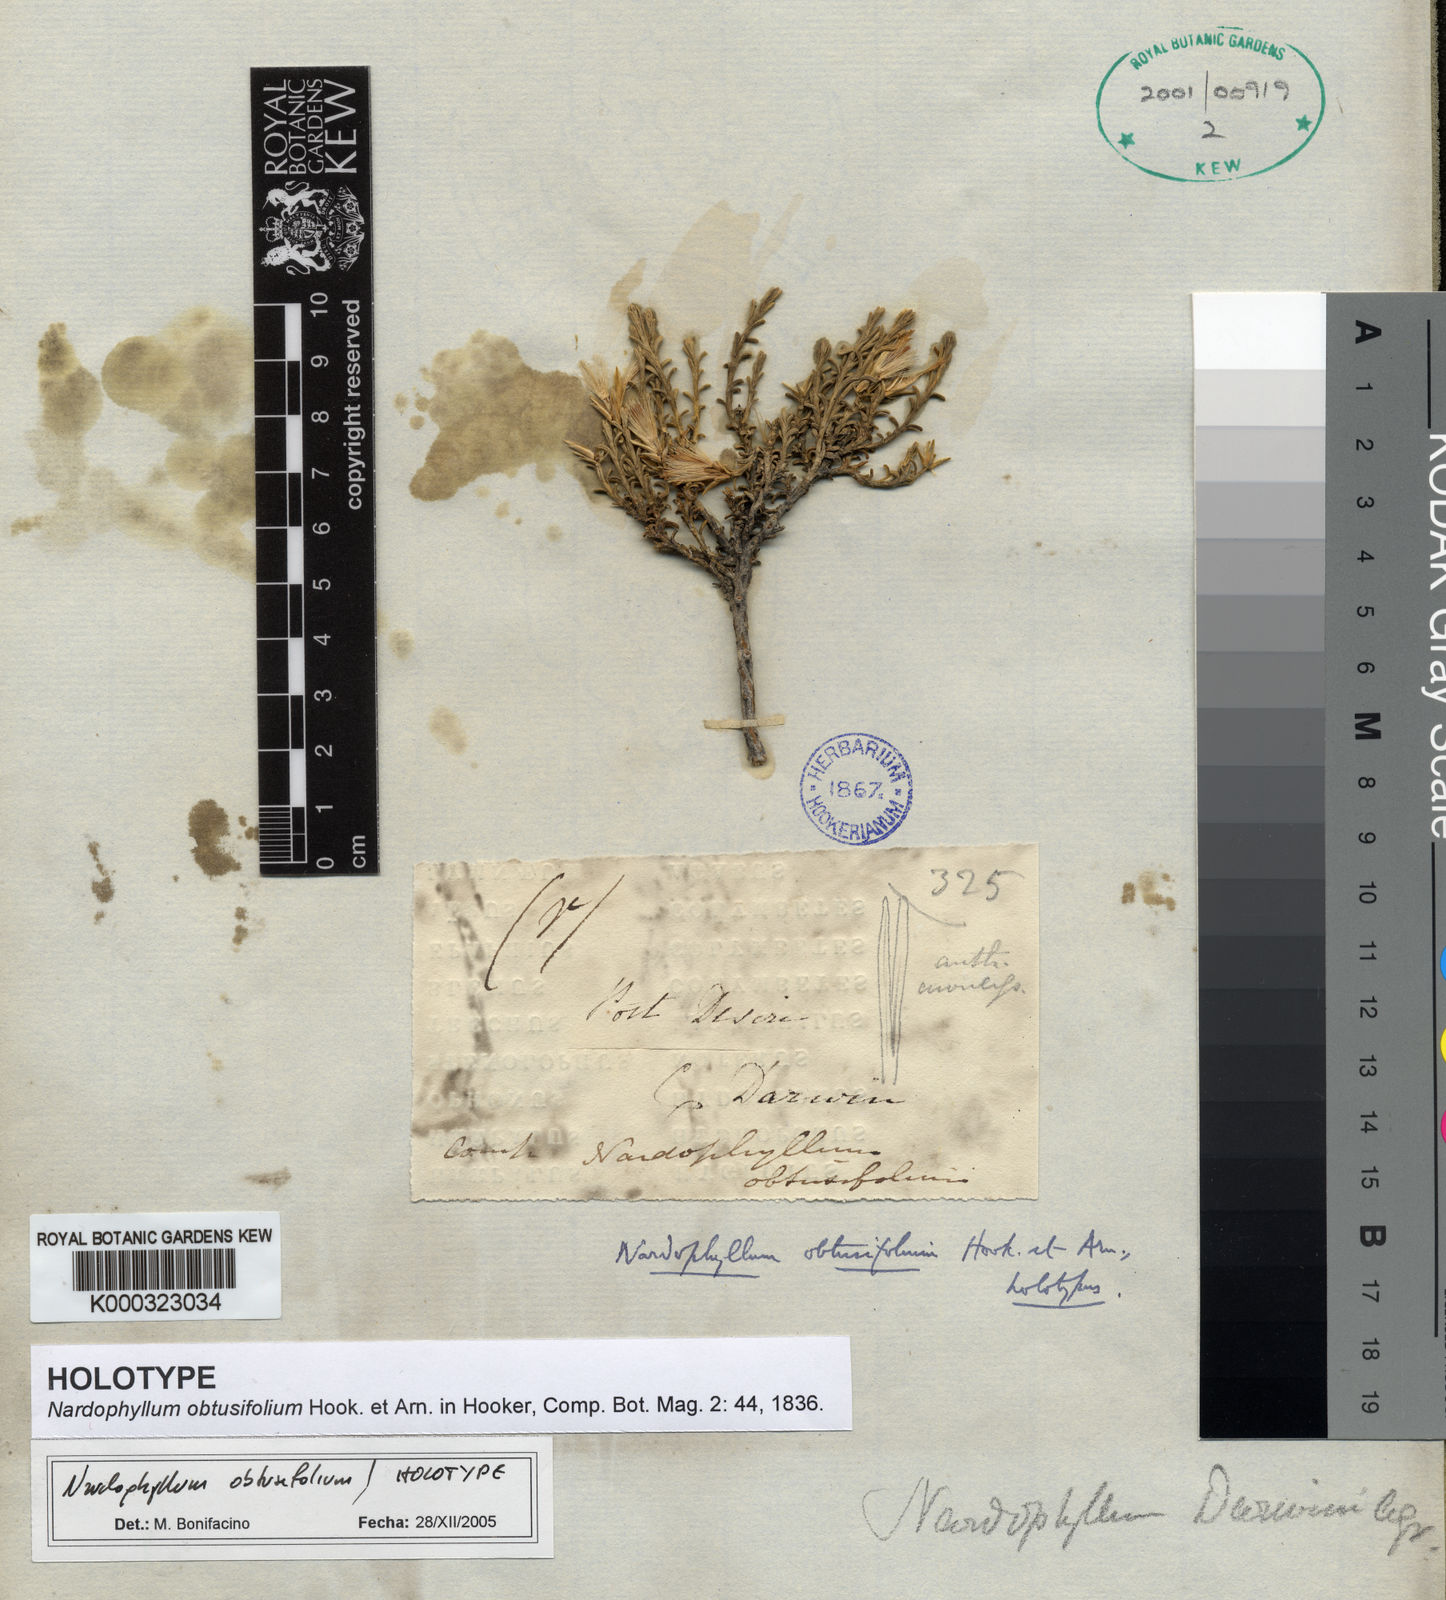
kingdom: Plantae
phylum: Tracheophyta
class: Magnoliopsida
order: Asterales
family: Asteraceae
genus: Nardophyllum
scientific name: Nardophyllum bryoides
